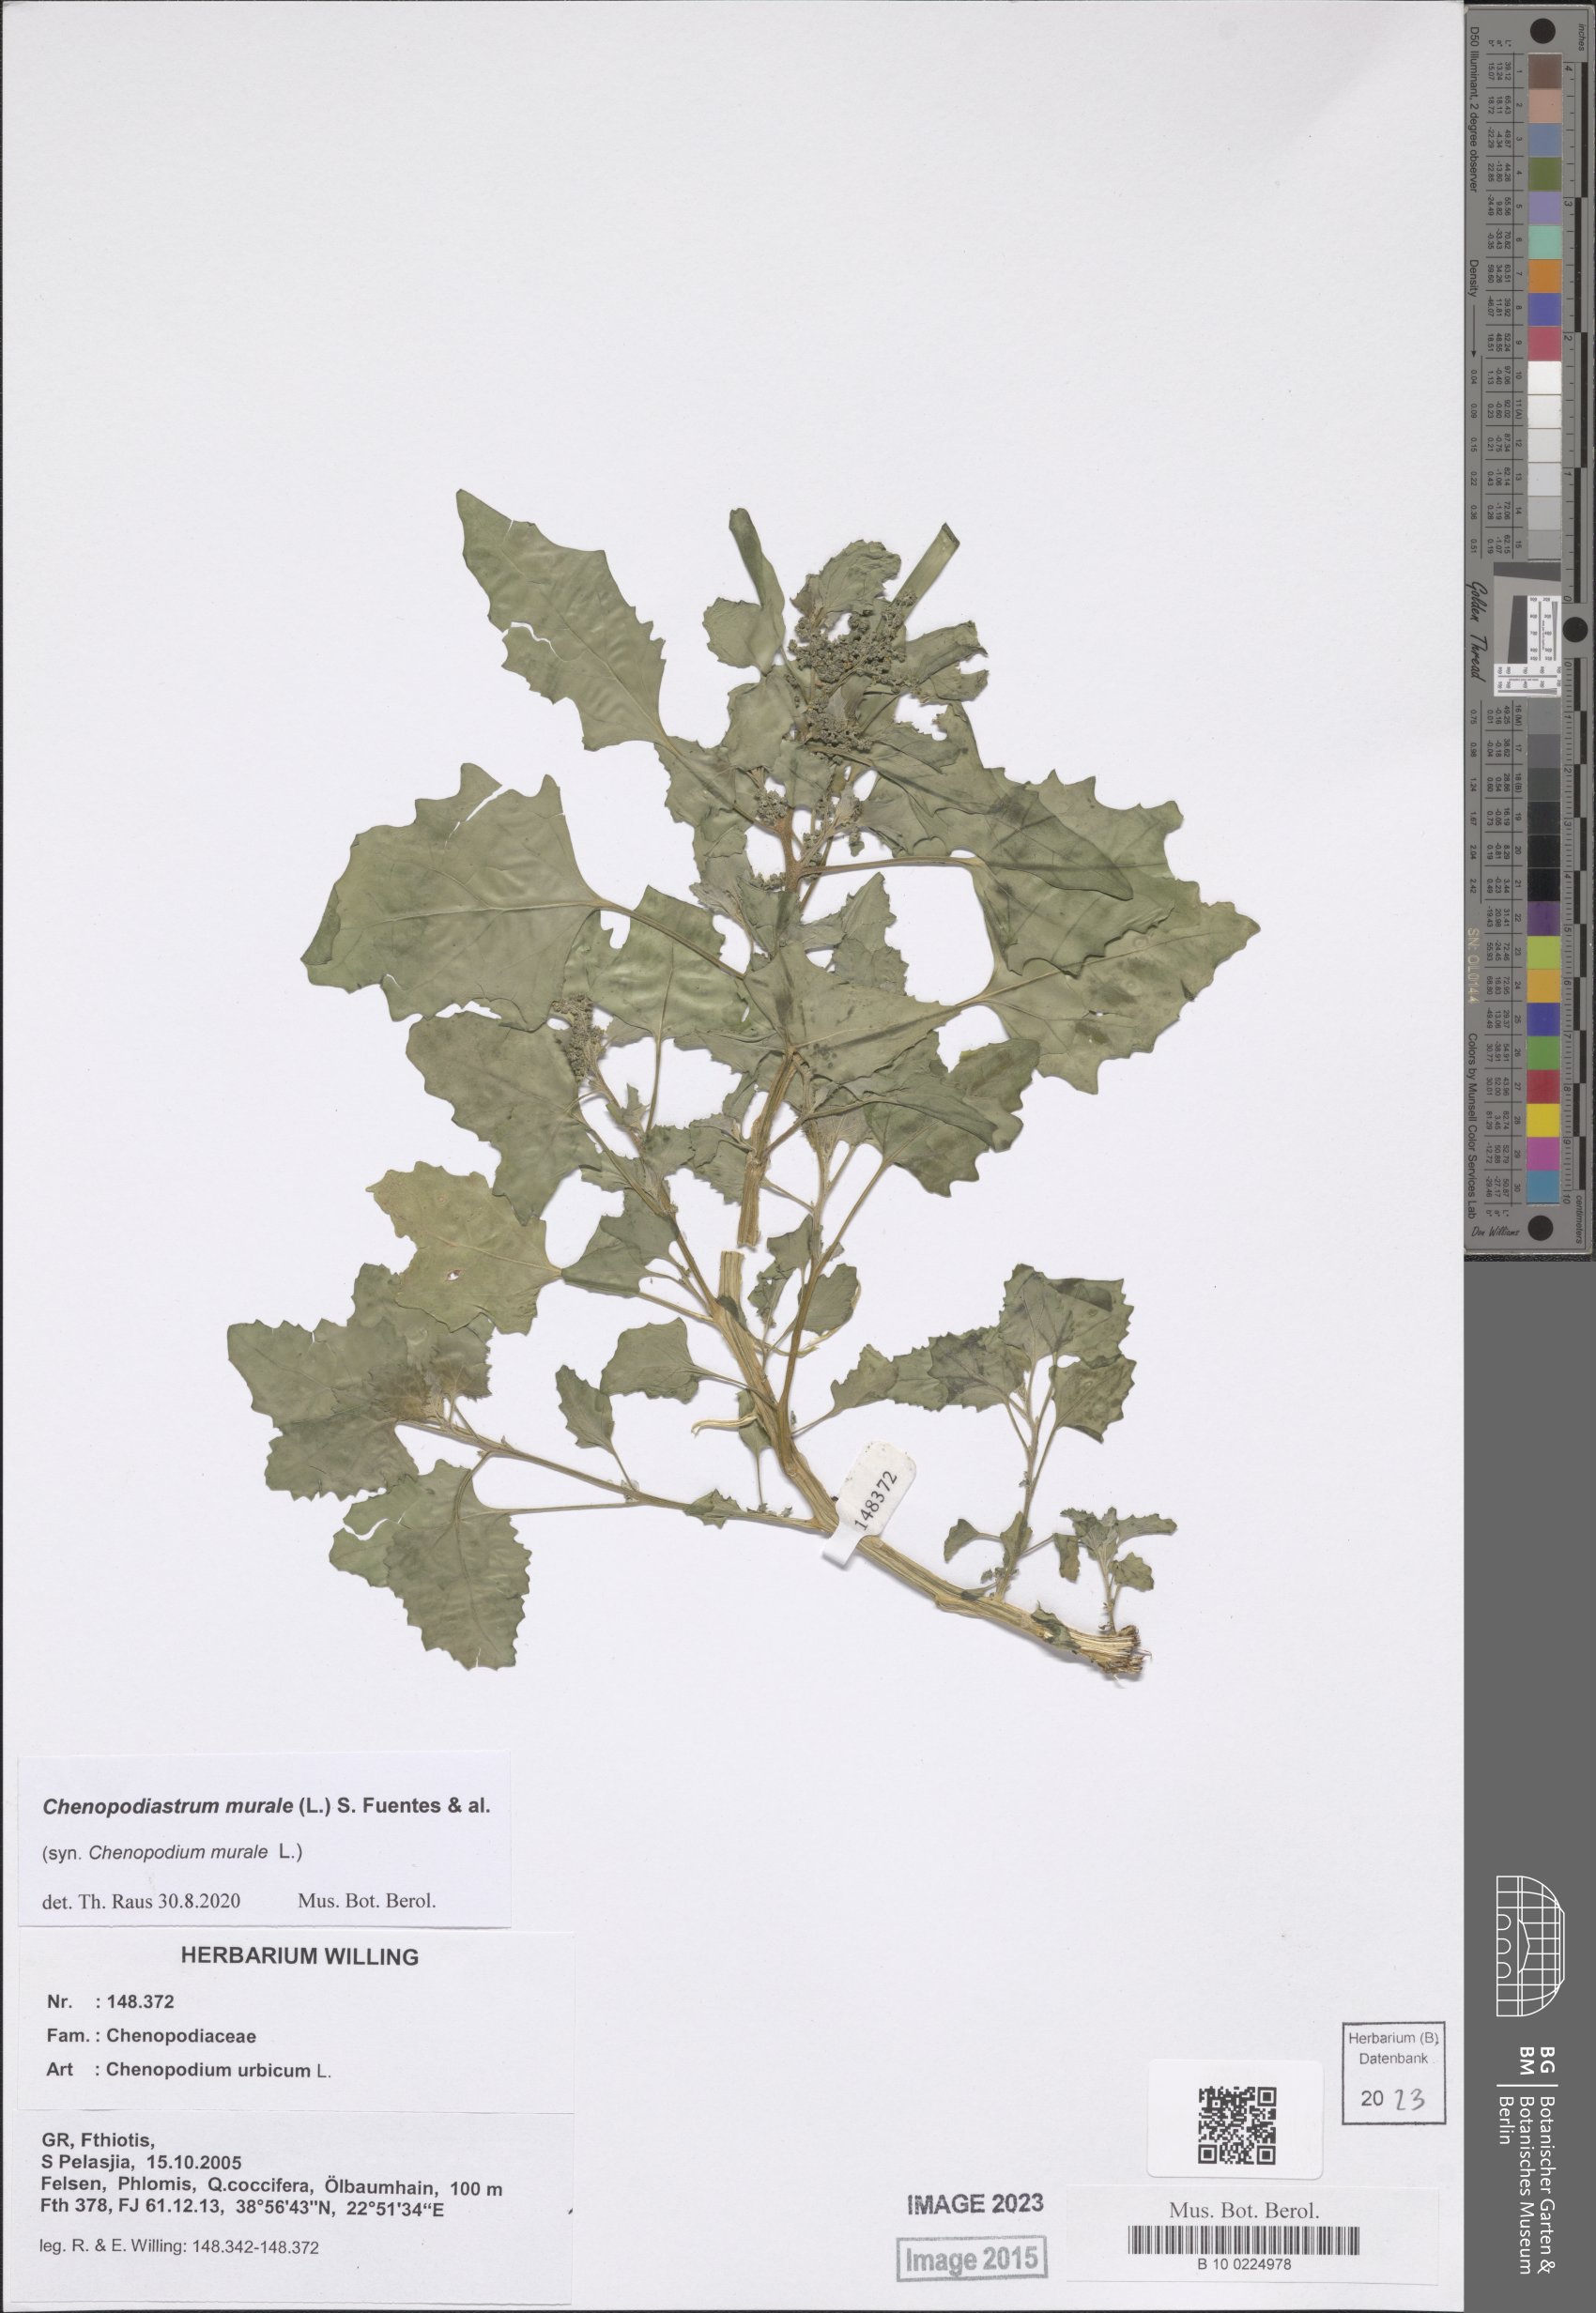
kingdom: Plantae
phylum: Tracheophyta
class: Magnoliopsida
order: Caryophyllales
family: Amaranthaceae
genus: Chenopodiastrum
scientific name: Chenopodiastrum murale
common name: Sowbane
